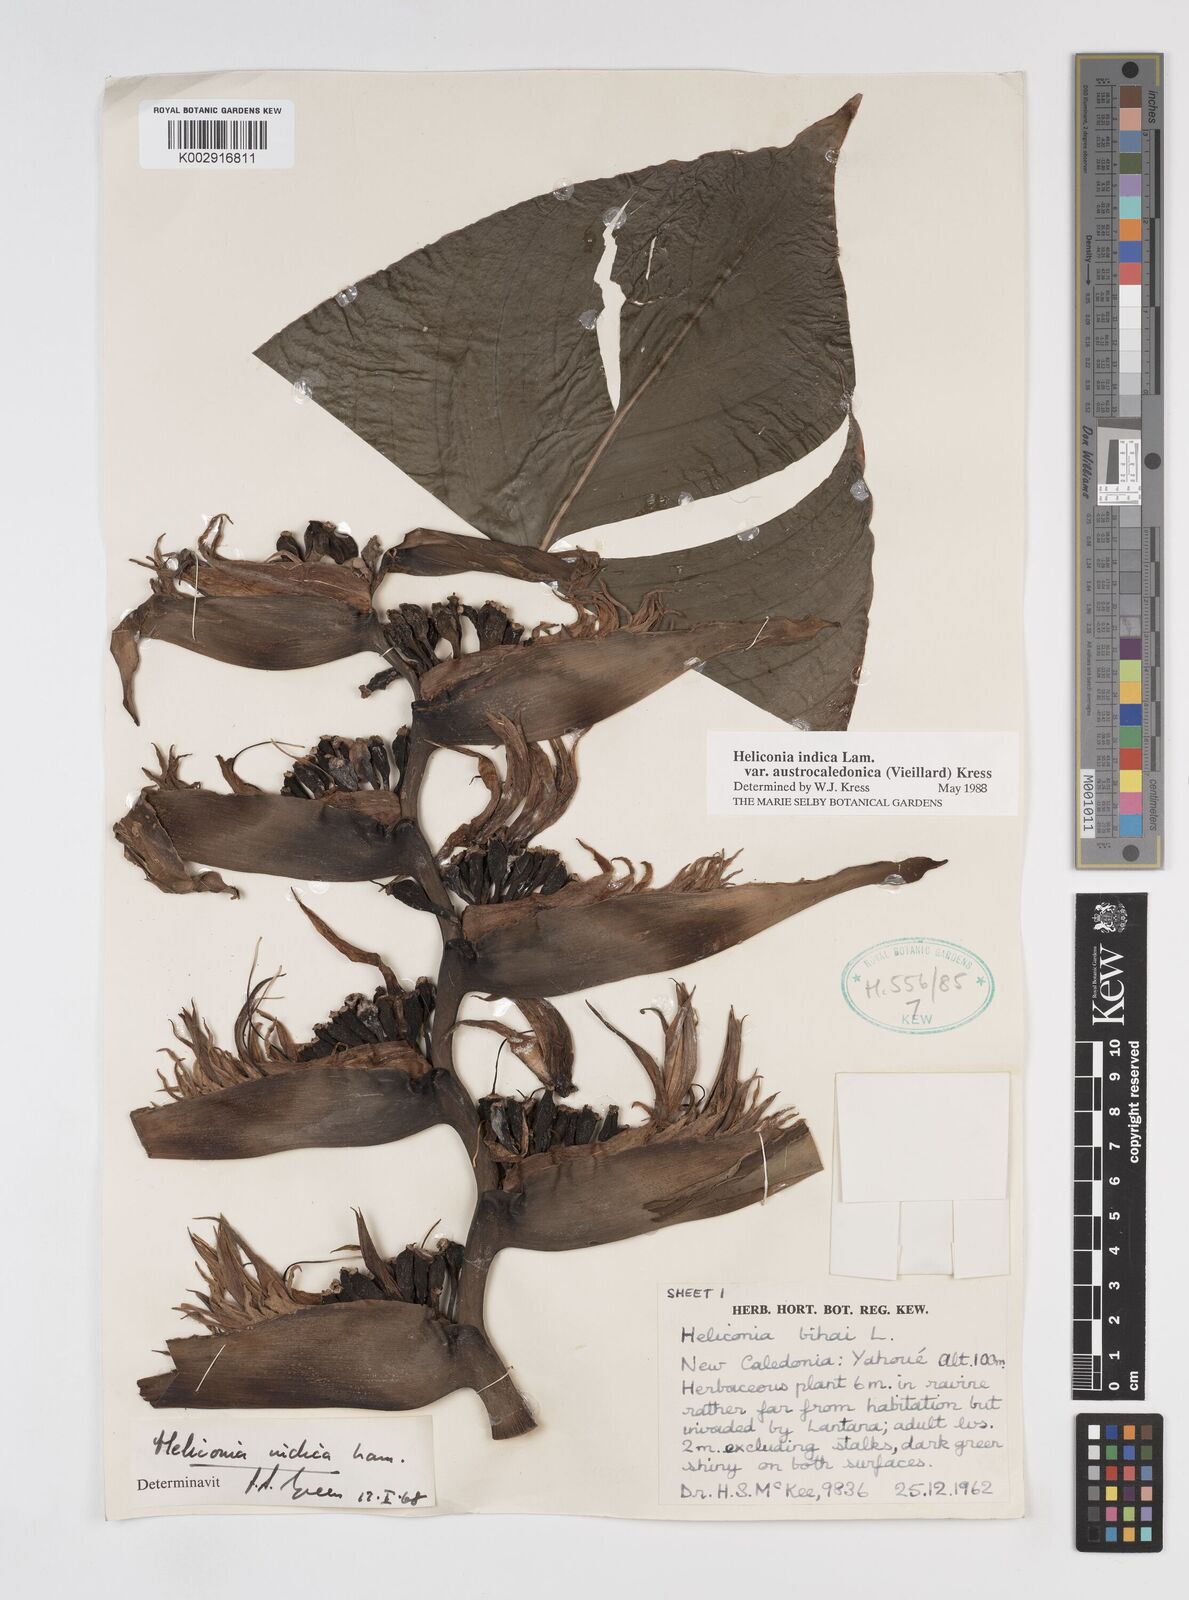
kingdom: Plantae
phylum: Tracheophyta
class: Liliopsida
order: Zingiberales
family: Heliconiaceae
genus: Heliconia
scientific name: Heliconia indica
